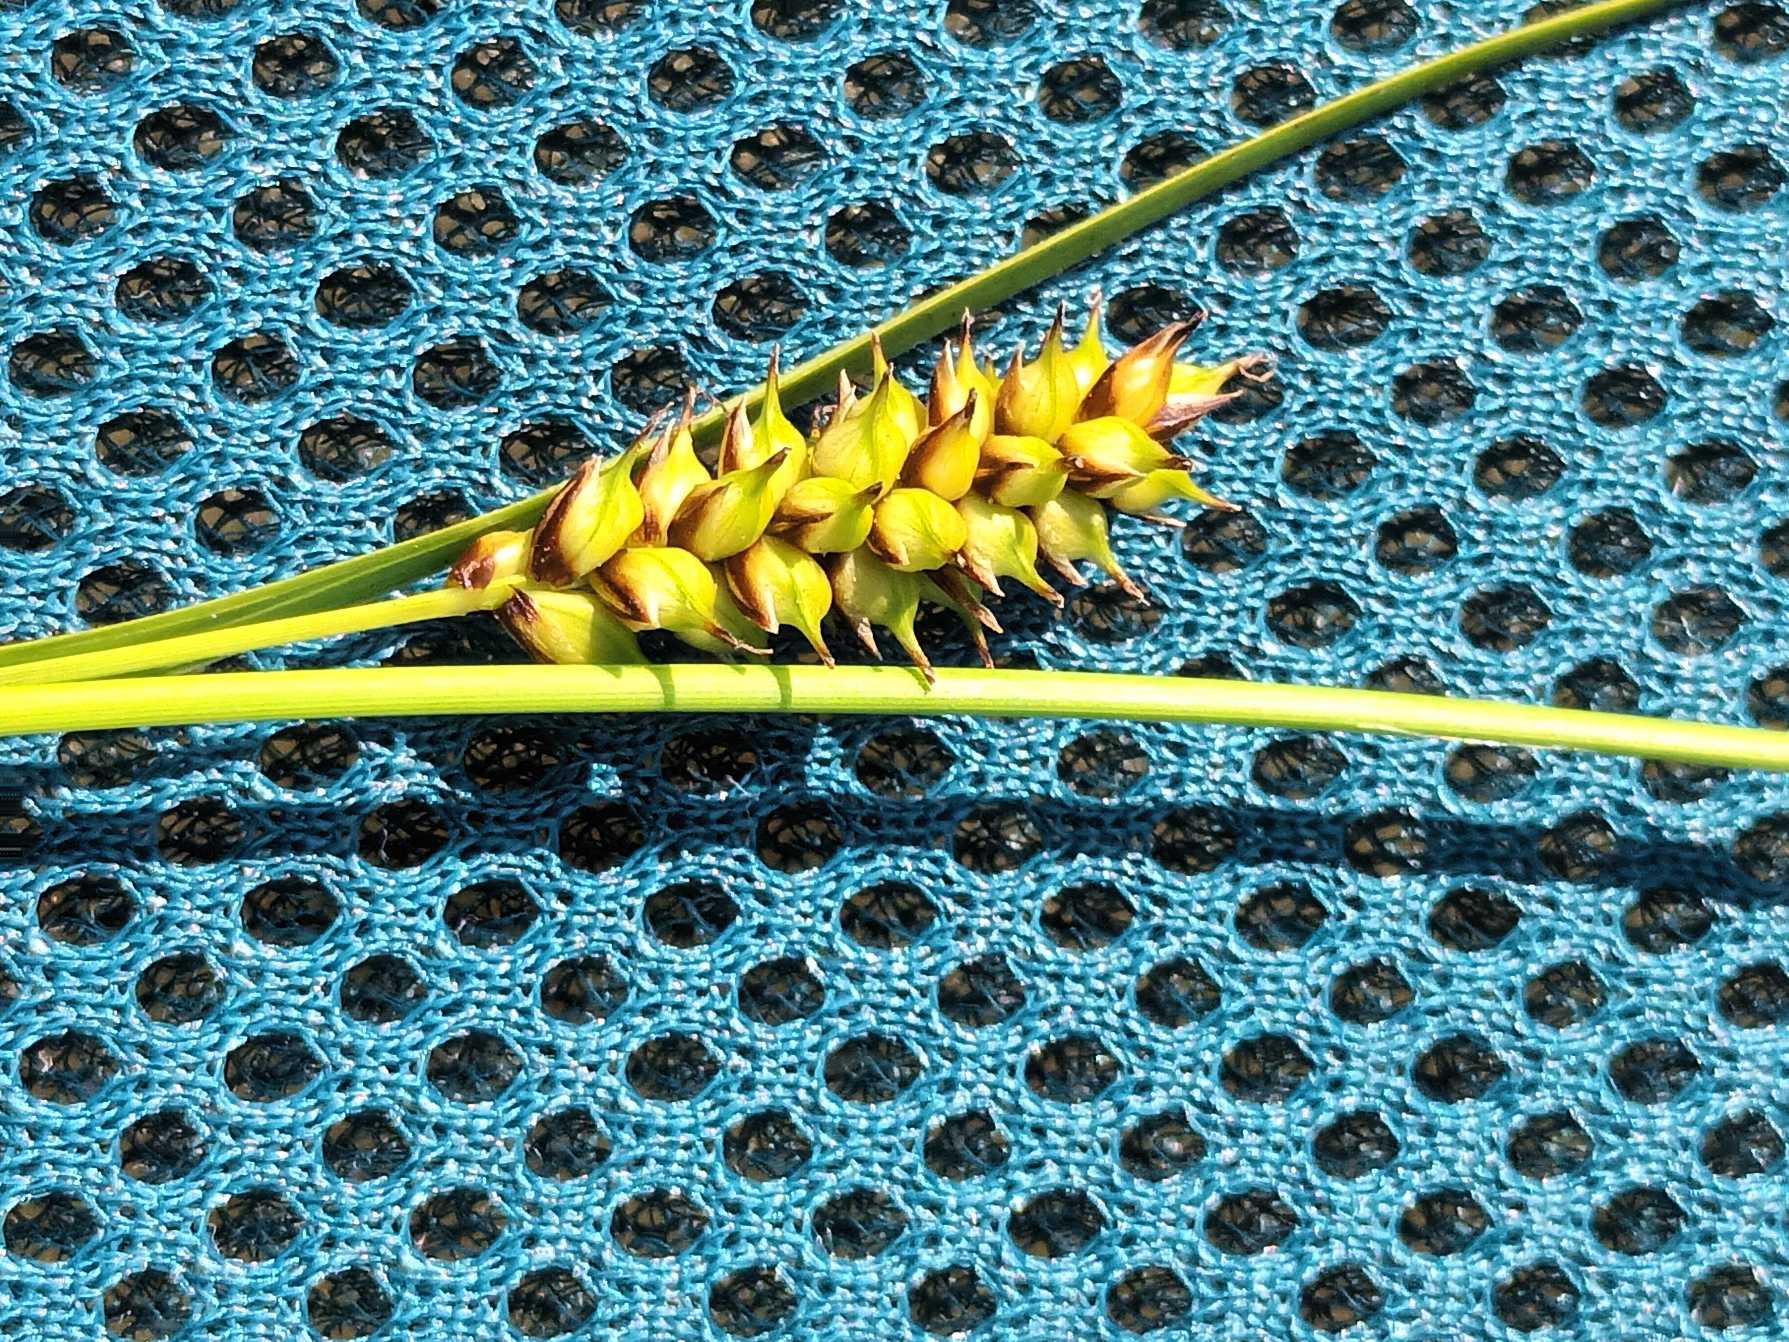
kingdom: Plantae
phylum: Tracheophyta
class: Liliopsida
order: Poales
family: Cyperaceae
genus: Carex
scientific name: Carex hostiana
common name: Skede-star
